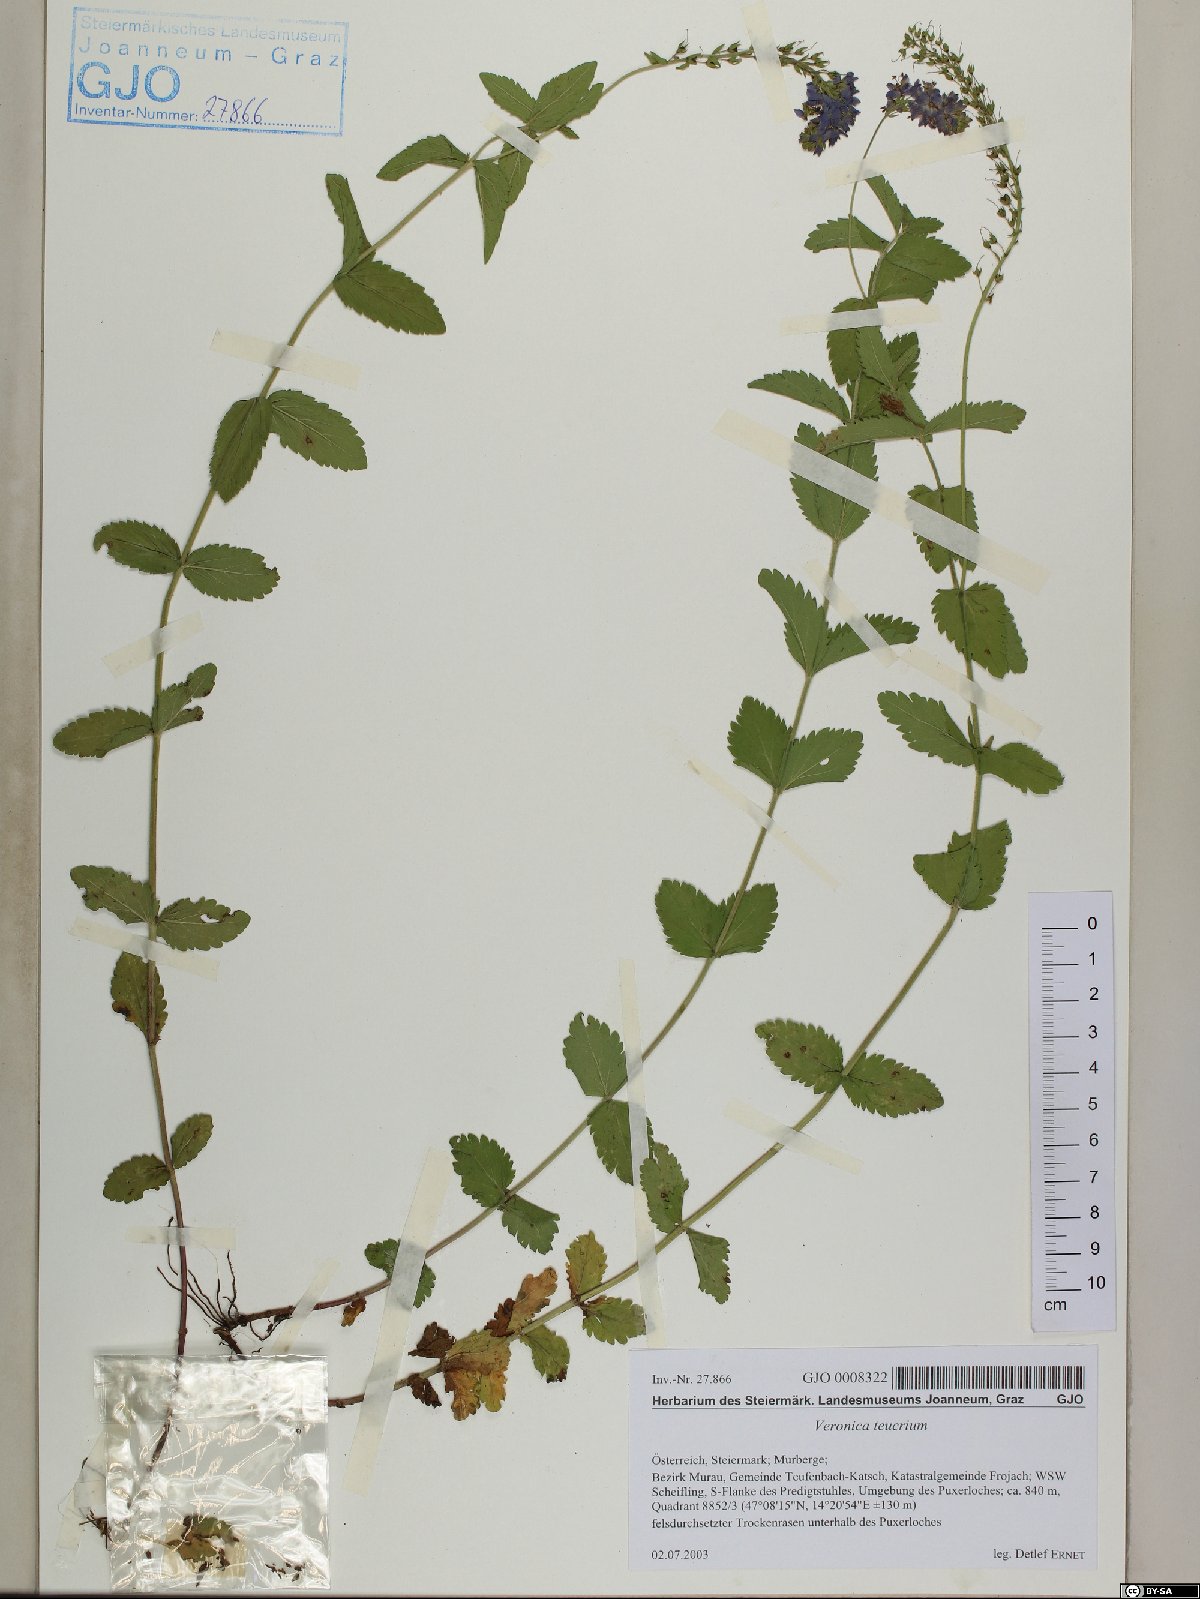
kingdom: Plantae
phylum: Tracheophyta
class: Magnoliopsida
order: Lamiales
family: Plantaginaceae
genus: Veronica
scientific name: Veronica teucrium
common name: Large speedwell
